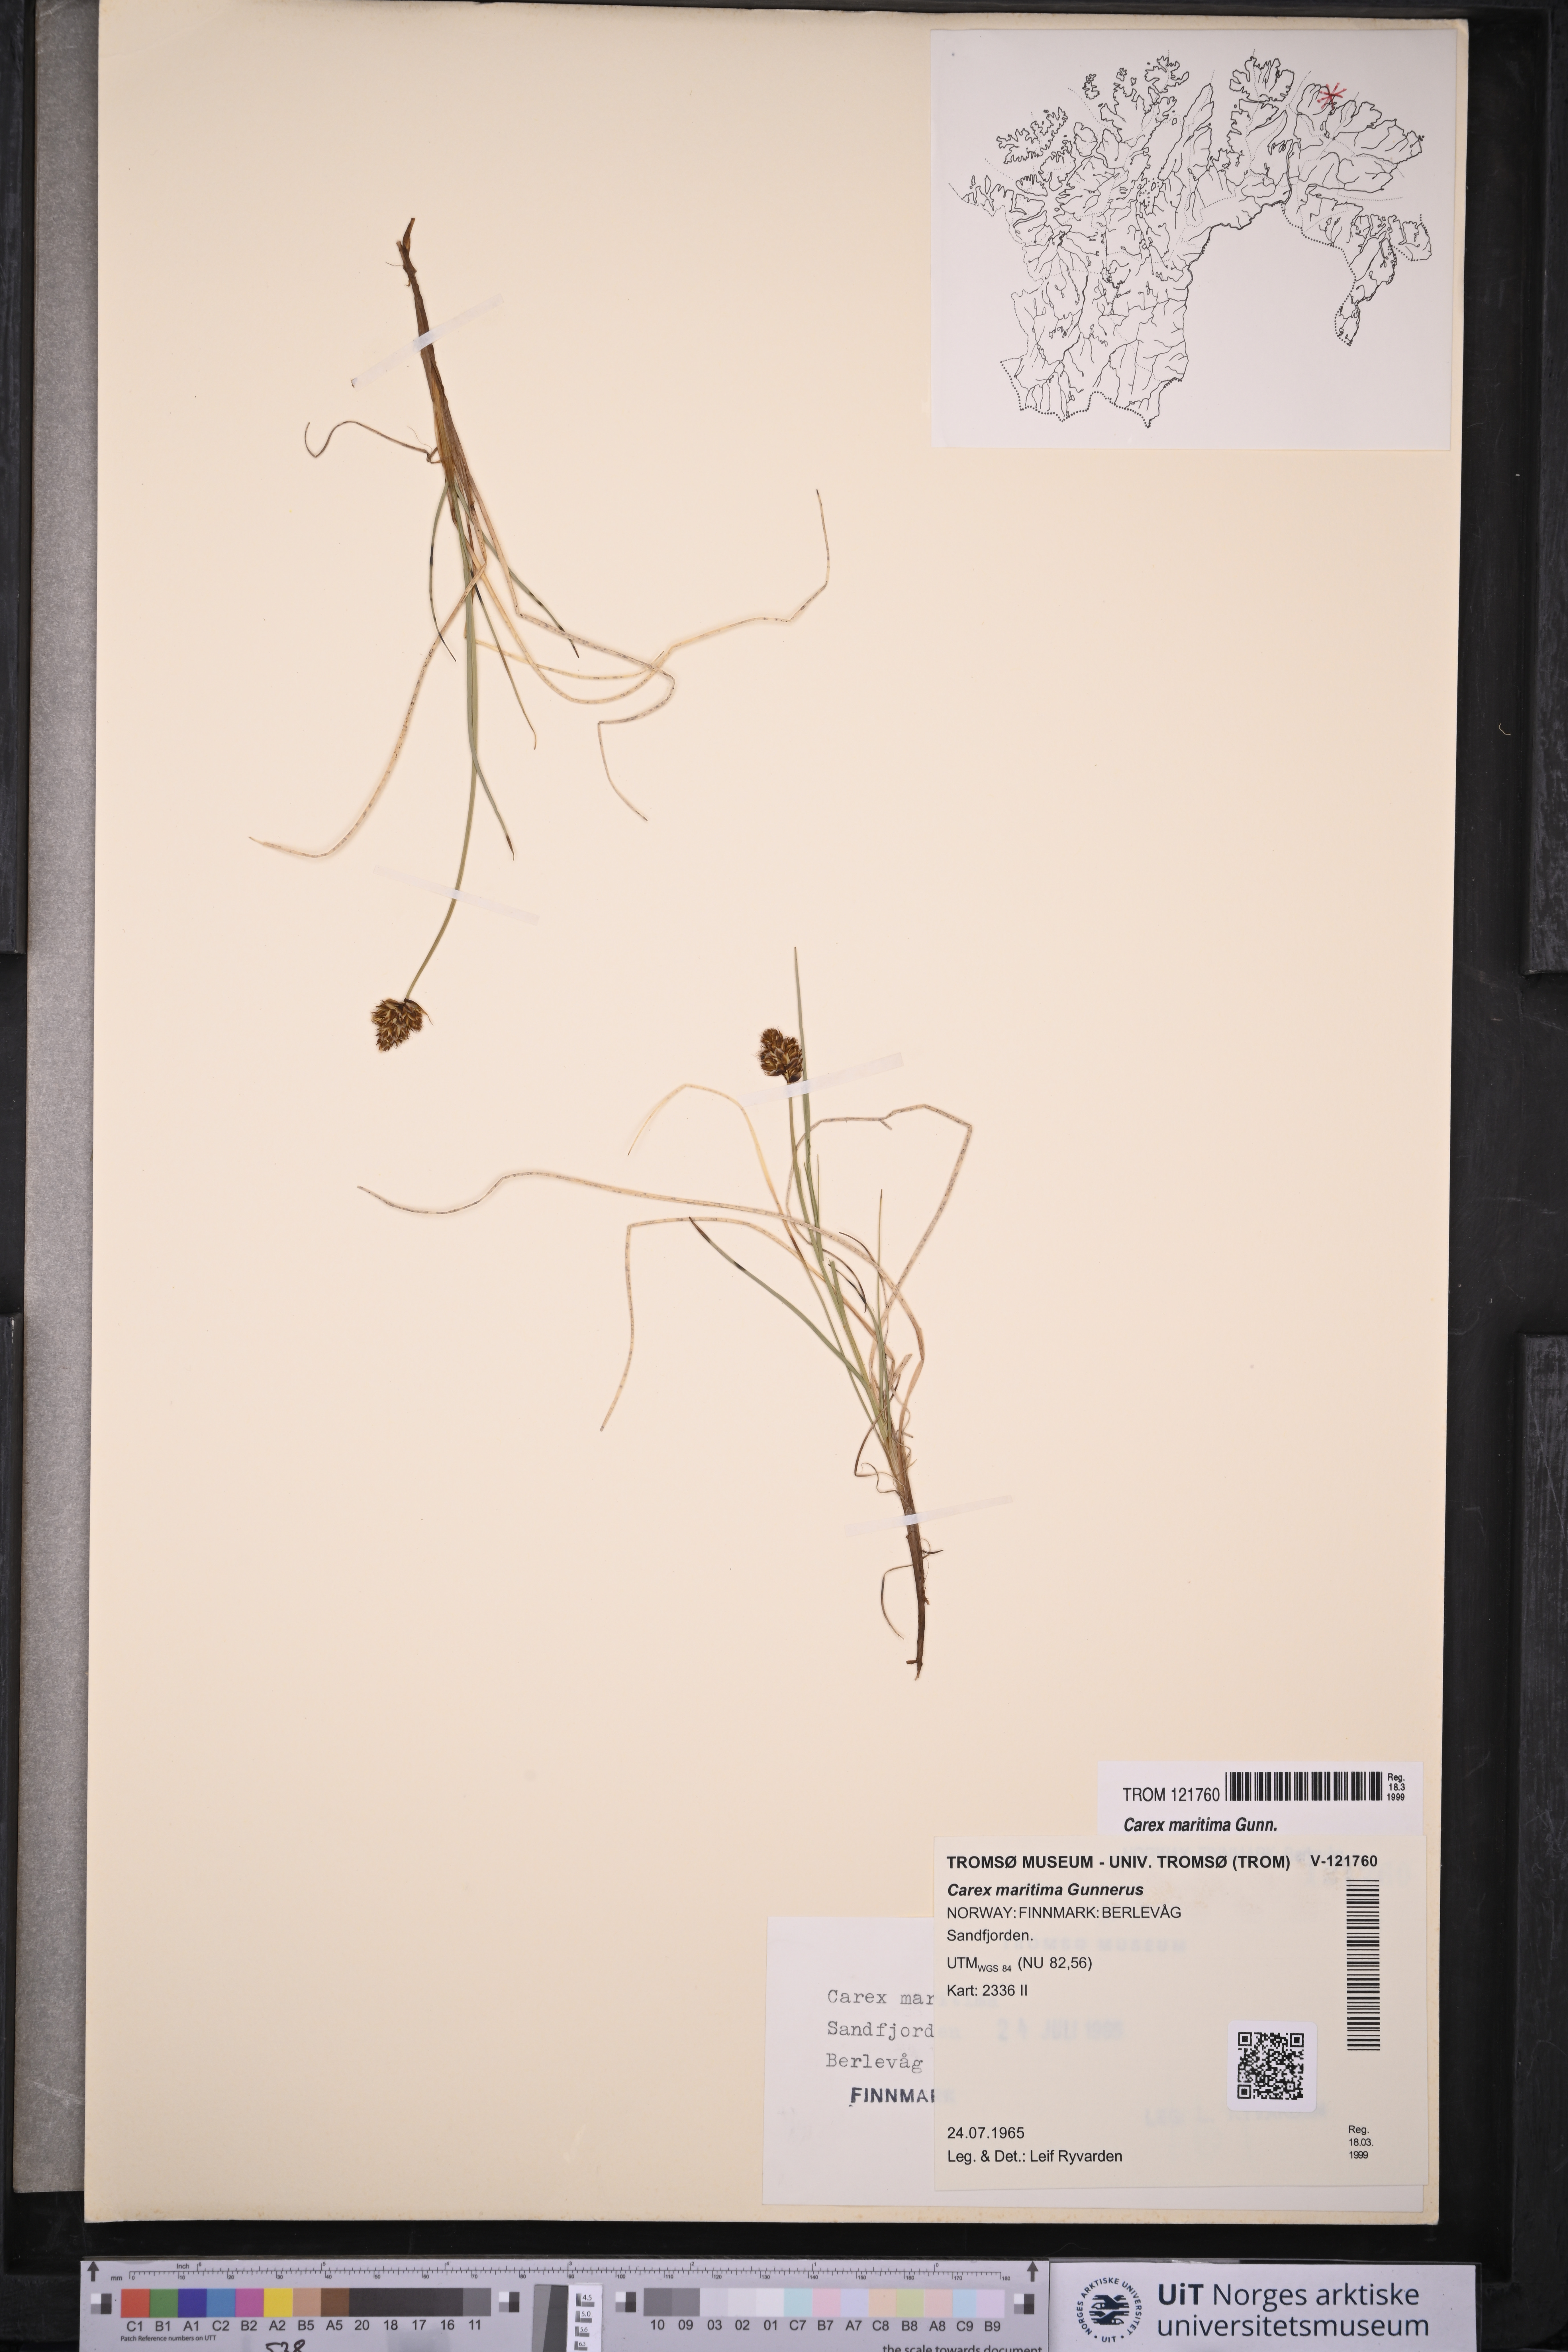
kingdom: Plantae
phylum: Tracheophyta
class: Liliopsida
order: Poales
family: Cyperaceae
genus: Carex
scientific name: Carex maritima
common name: Curved sedge
